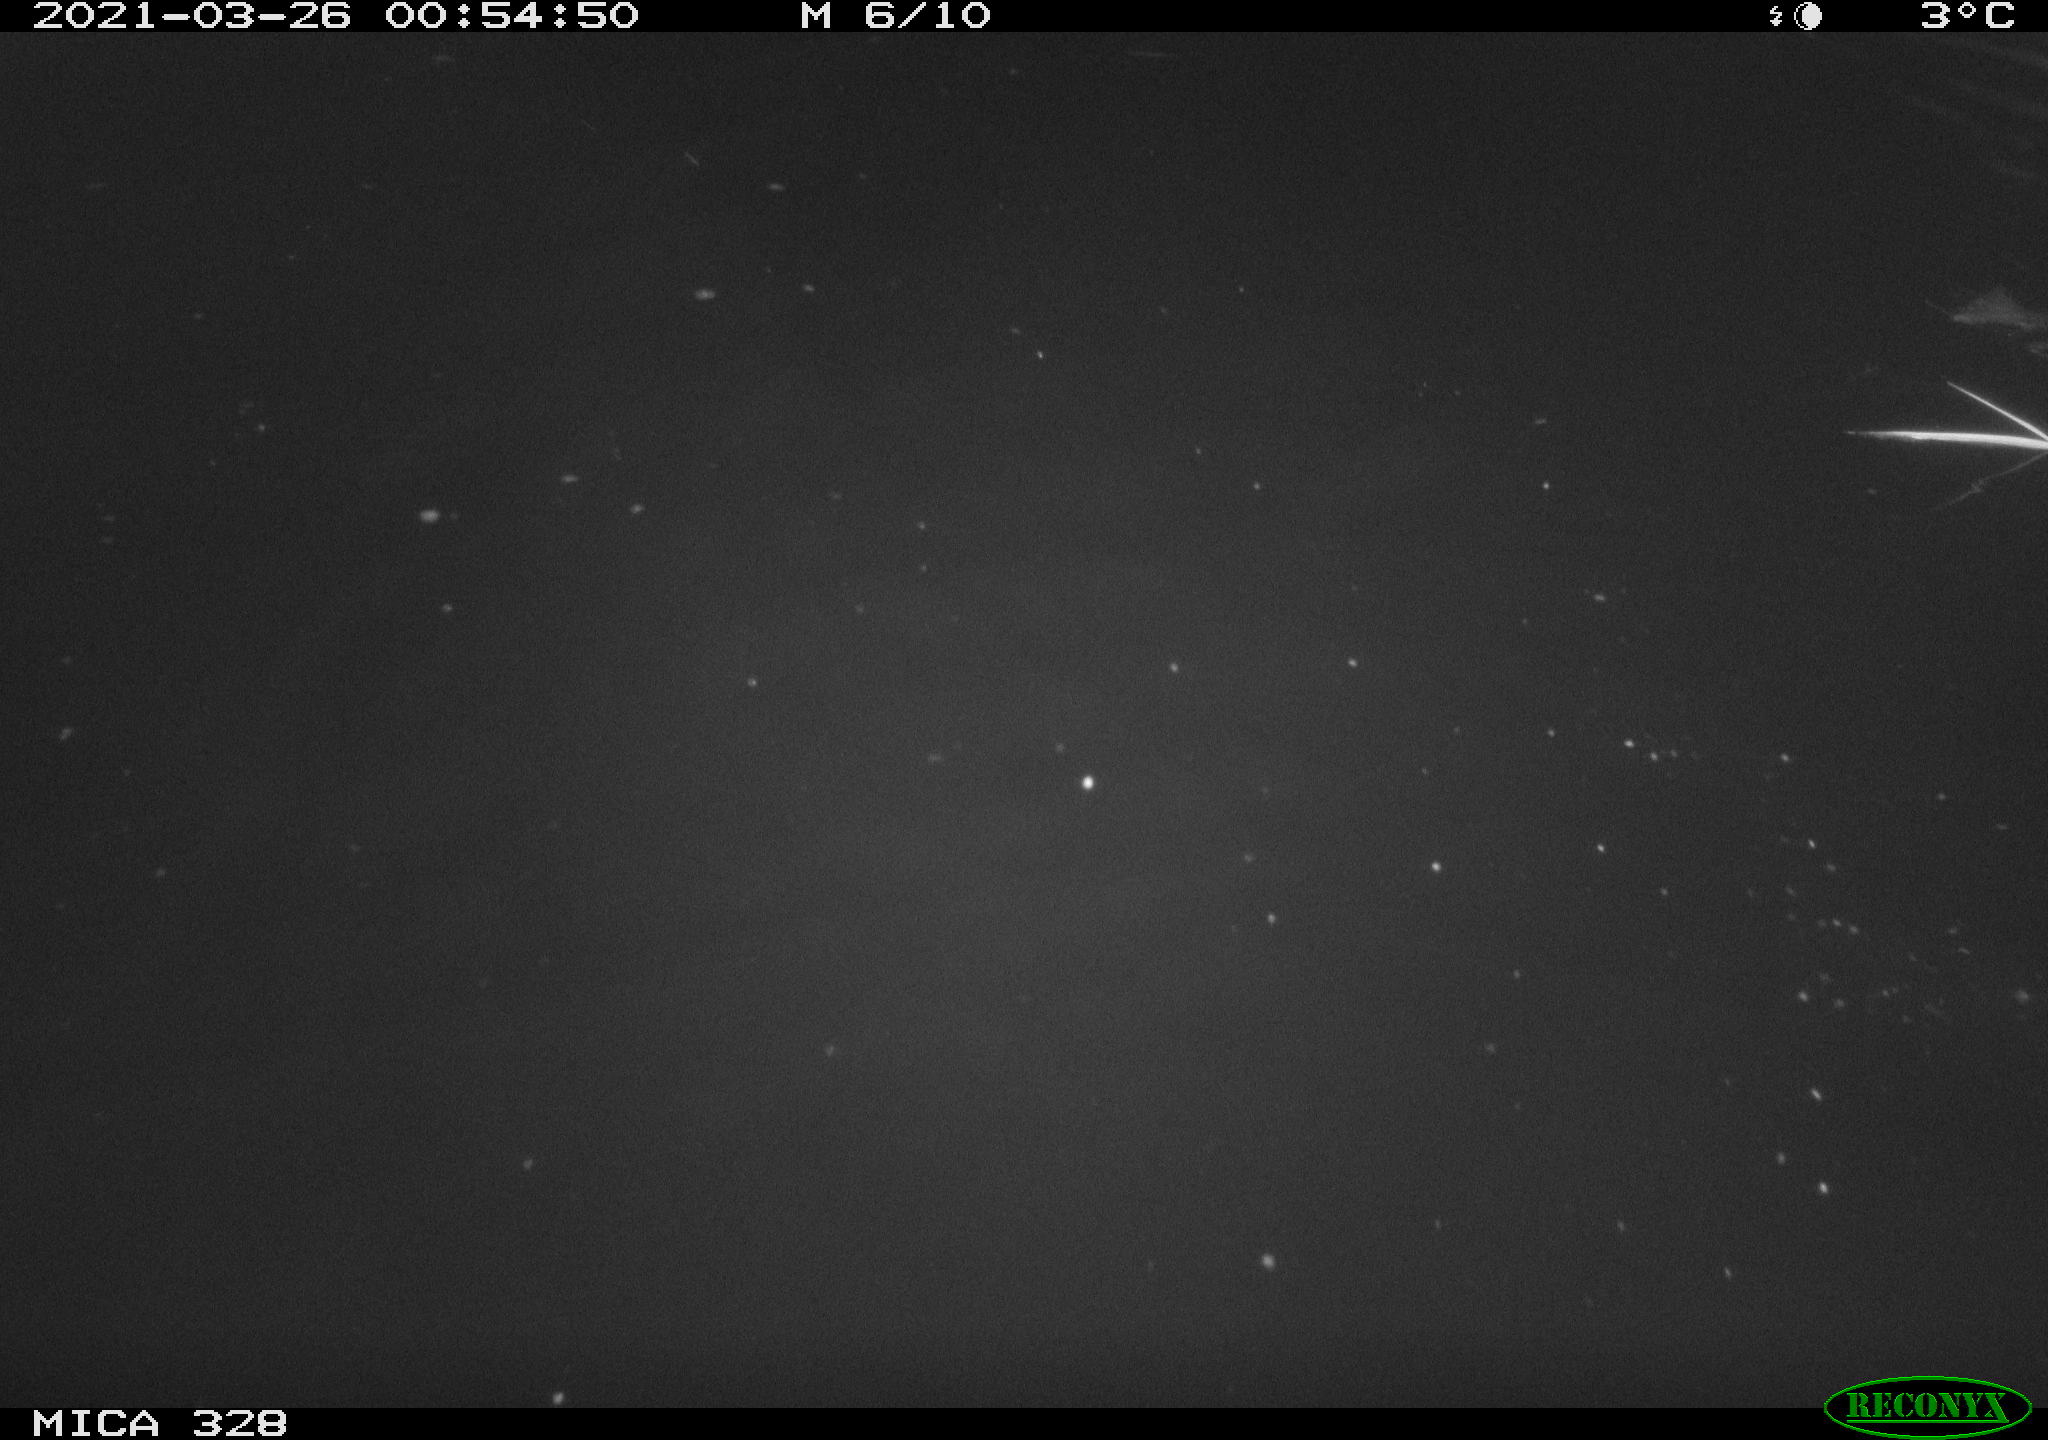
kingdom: Animalia
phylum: Chordata
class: Mammalia
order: Rodentia
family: Cricetidae
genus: Ondatra
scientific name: Ondatra zibethicus
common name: Muskrat
